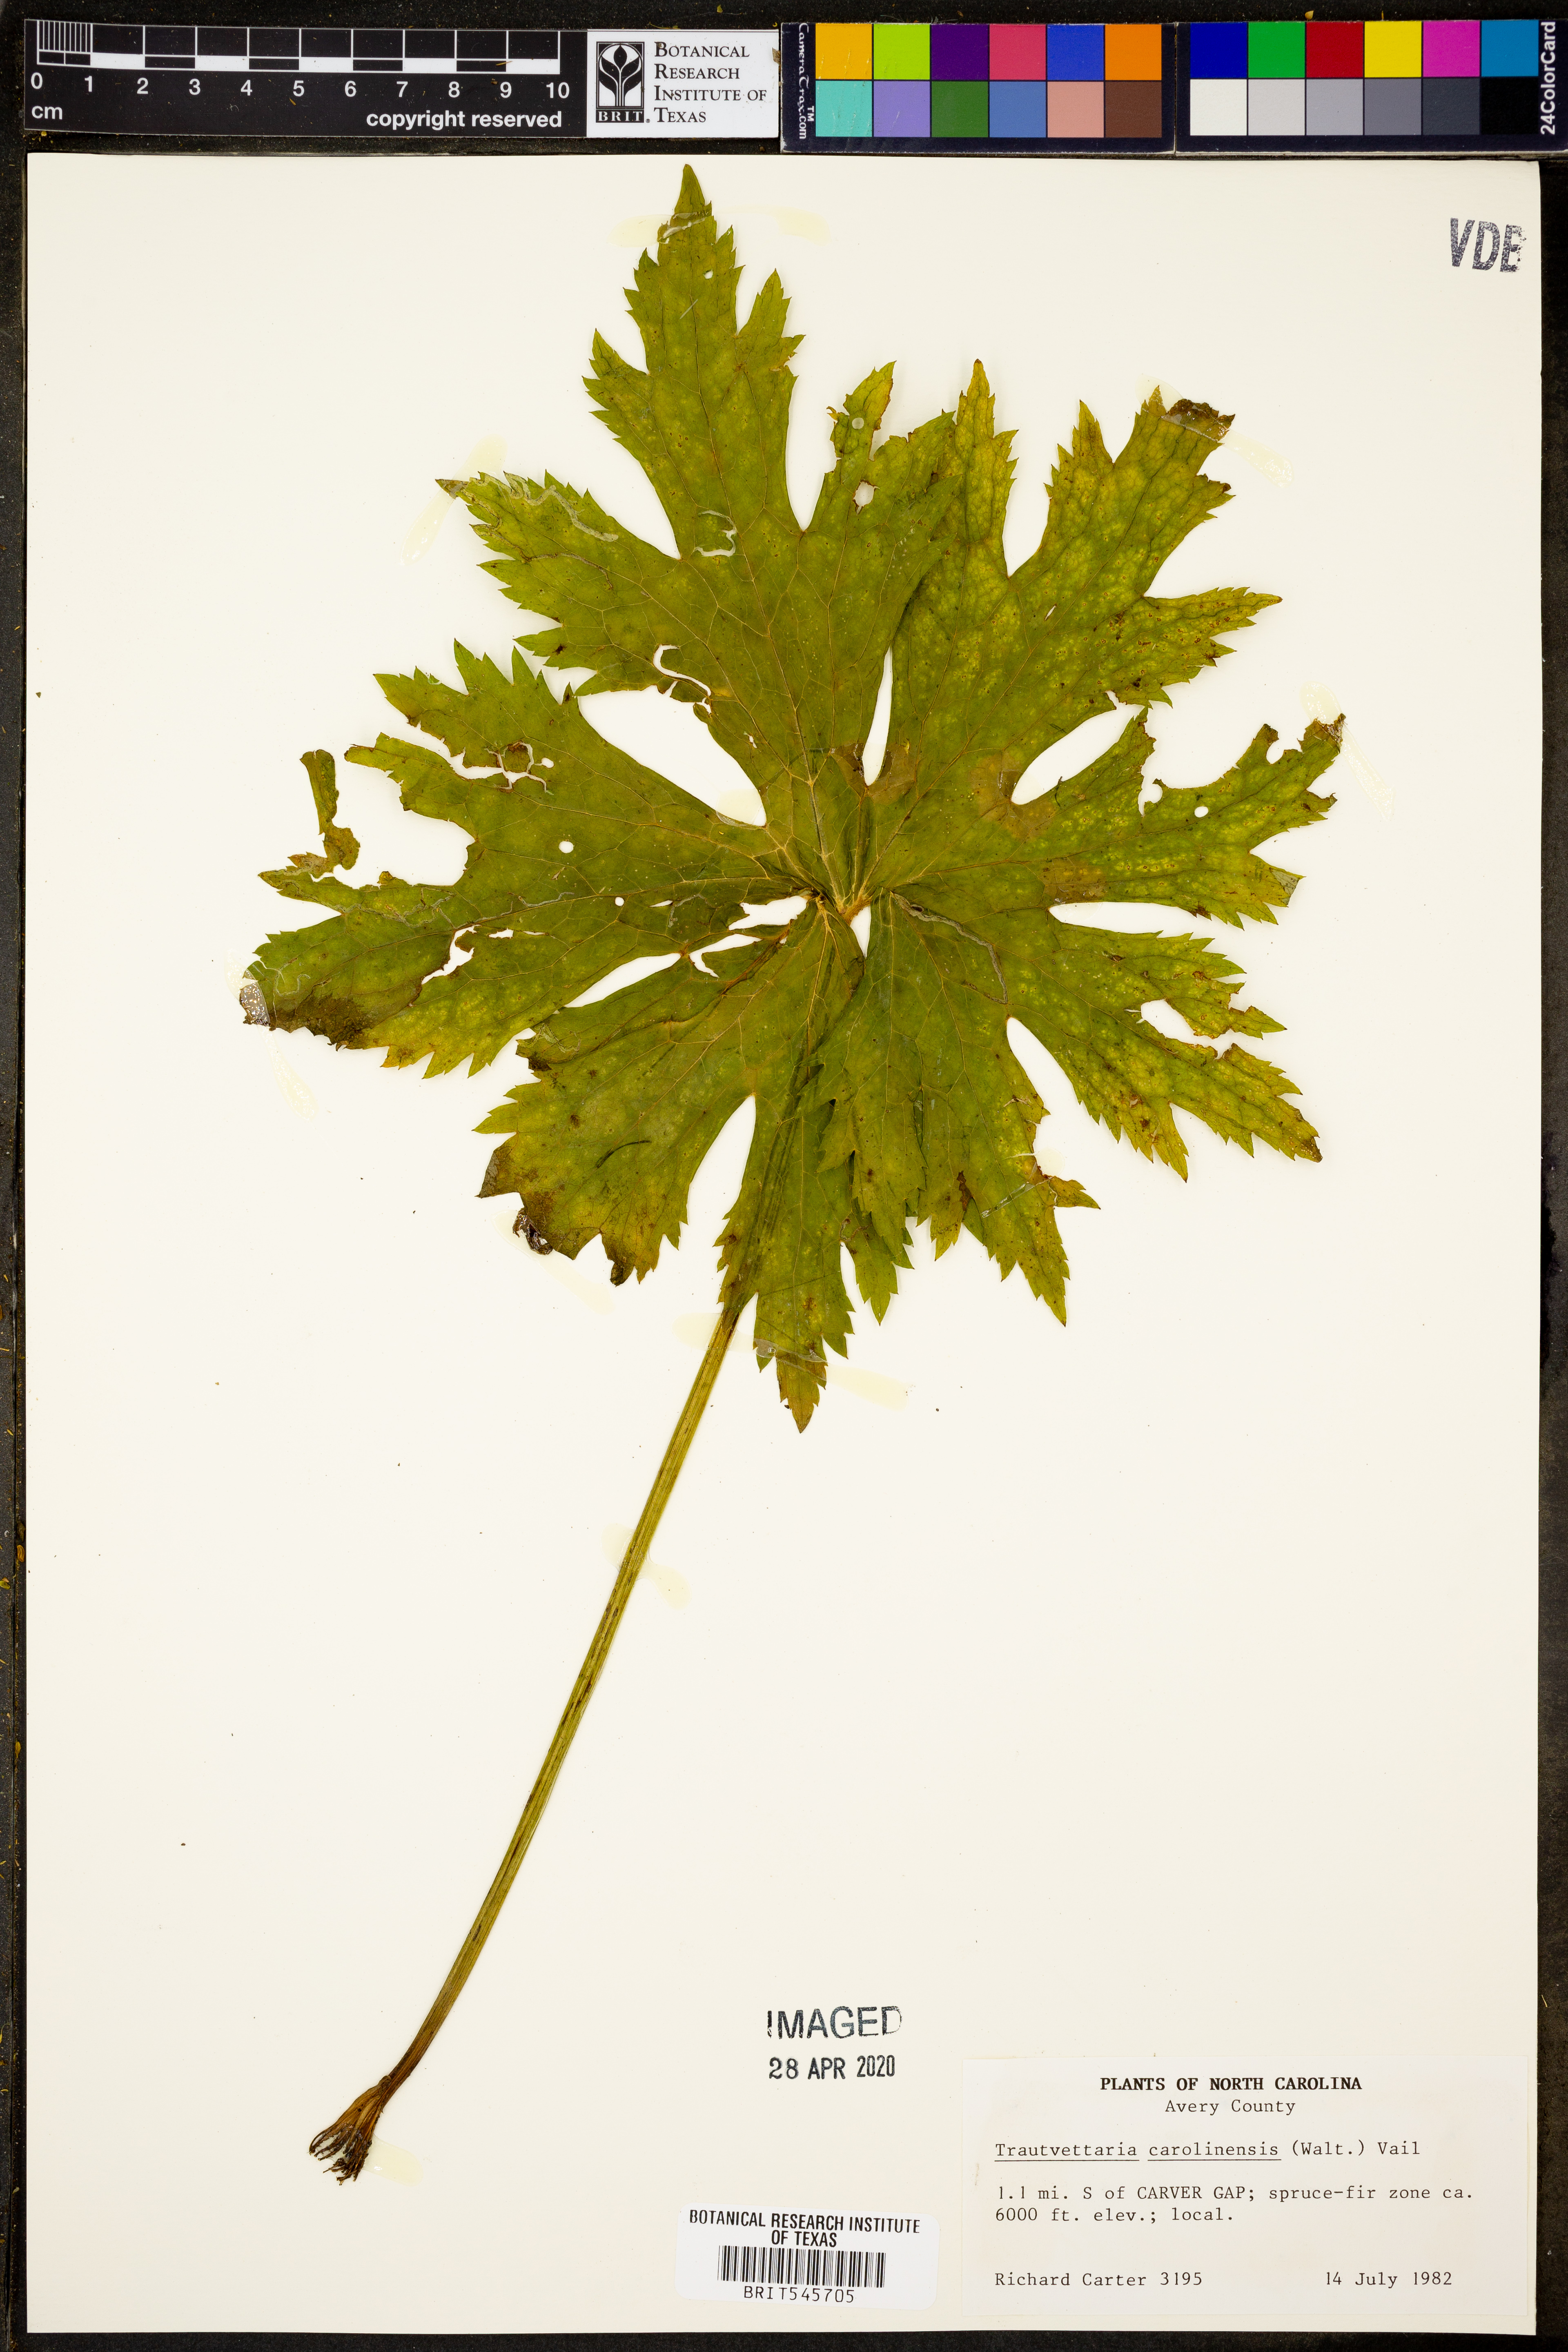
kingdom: Plantae
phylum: Tracheophyta
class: Magnoliopsida
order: Ranunculales
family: Ranunculaceae
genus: Trautvetteria
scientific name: Trautvetteria carolinensis
